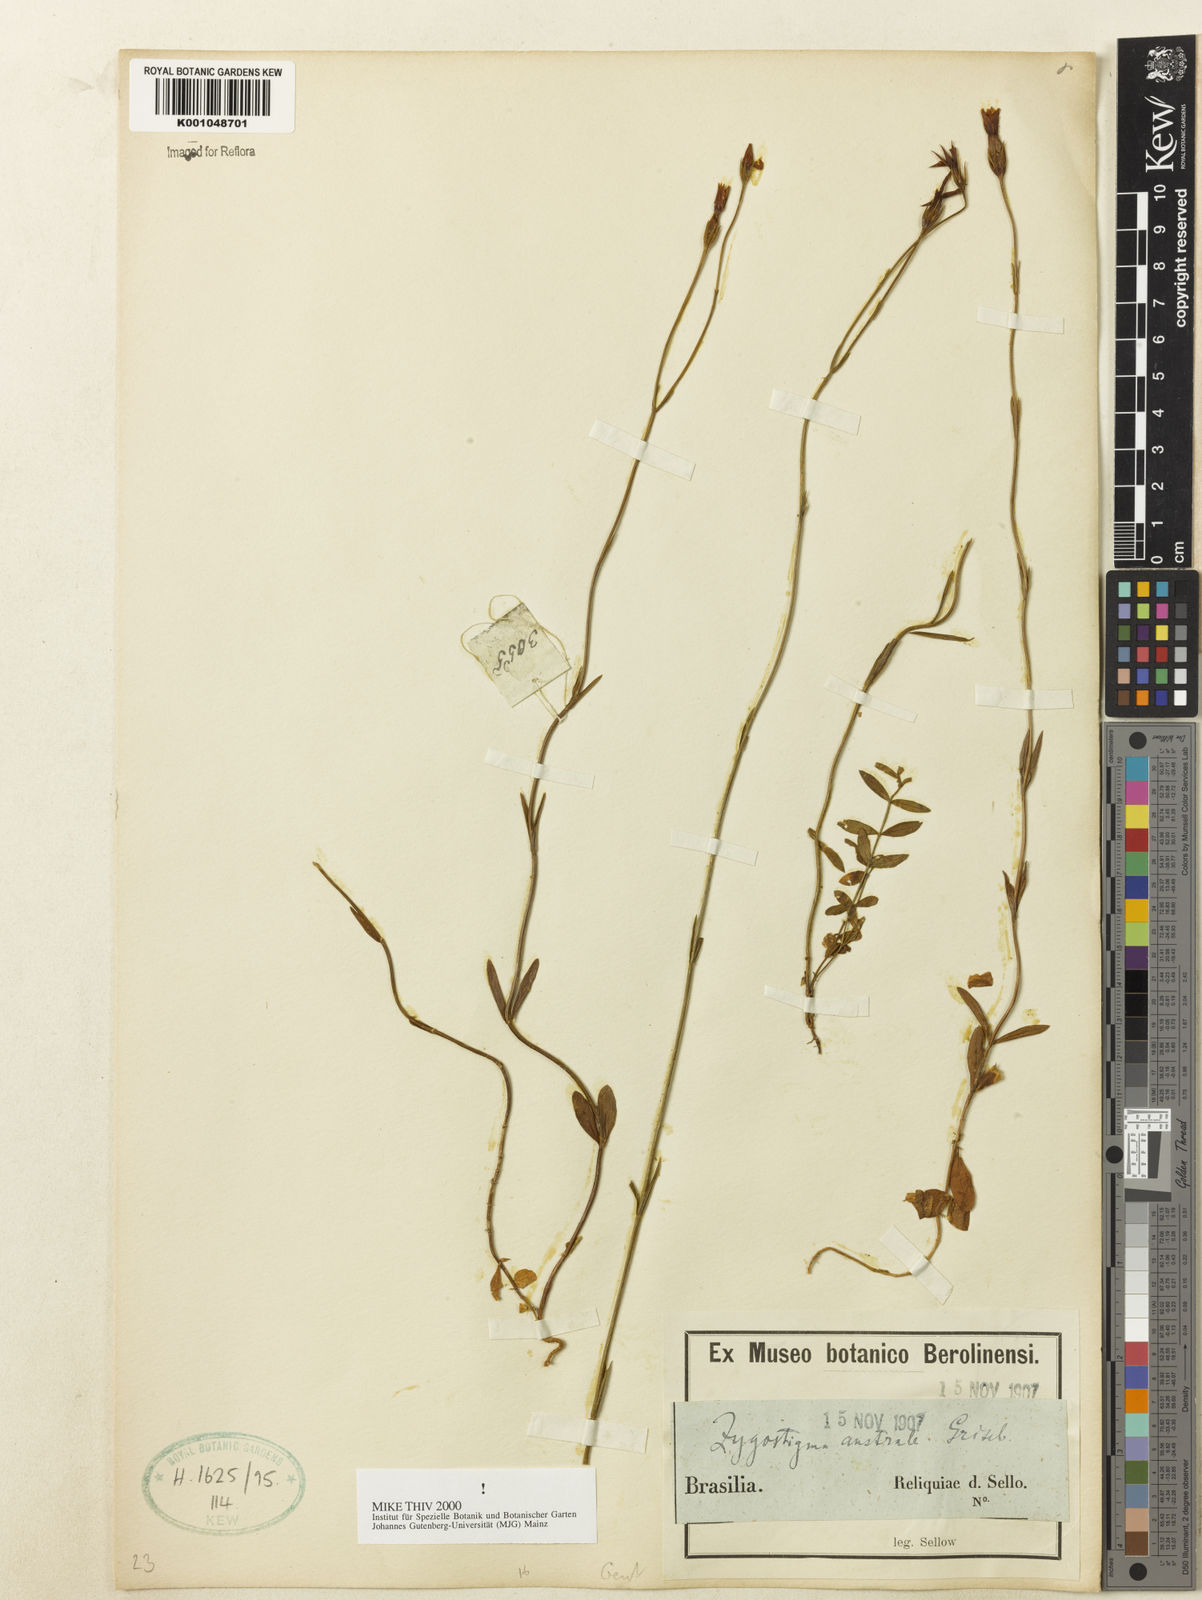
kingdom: Plantae
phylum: Tracheophyta
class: Magnoliopsida
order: Gentianales
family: Gentianaceae
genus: Zygostigma
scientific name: Zygostigma australe
